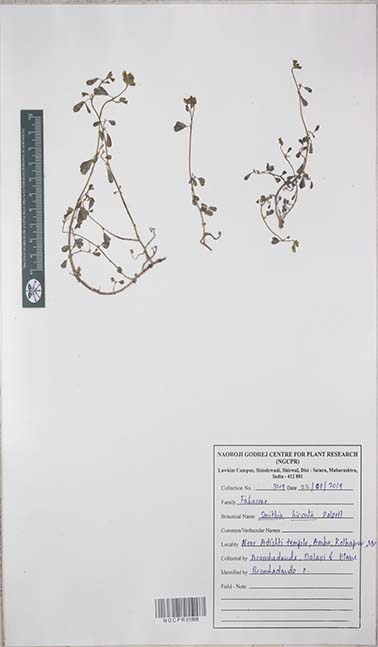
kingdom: Plantae
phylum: Tracheophyta
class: Magnoliopsida
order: Fabales
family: Fabaceae
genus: Smithia
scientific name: Smithia hirsuta
